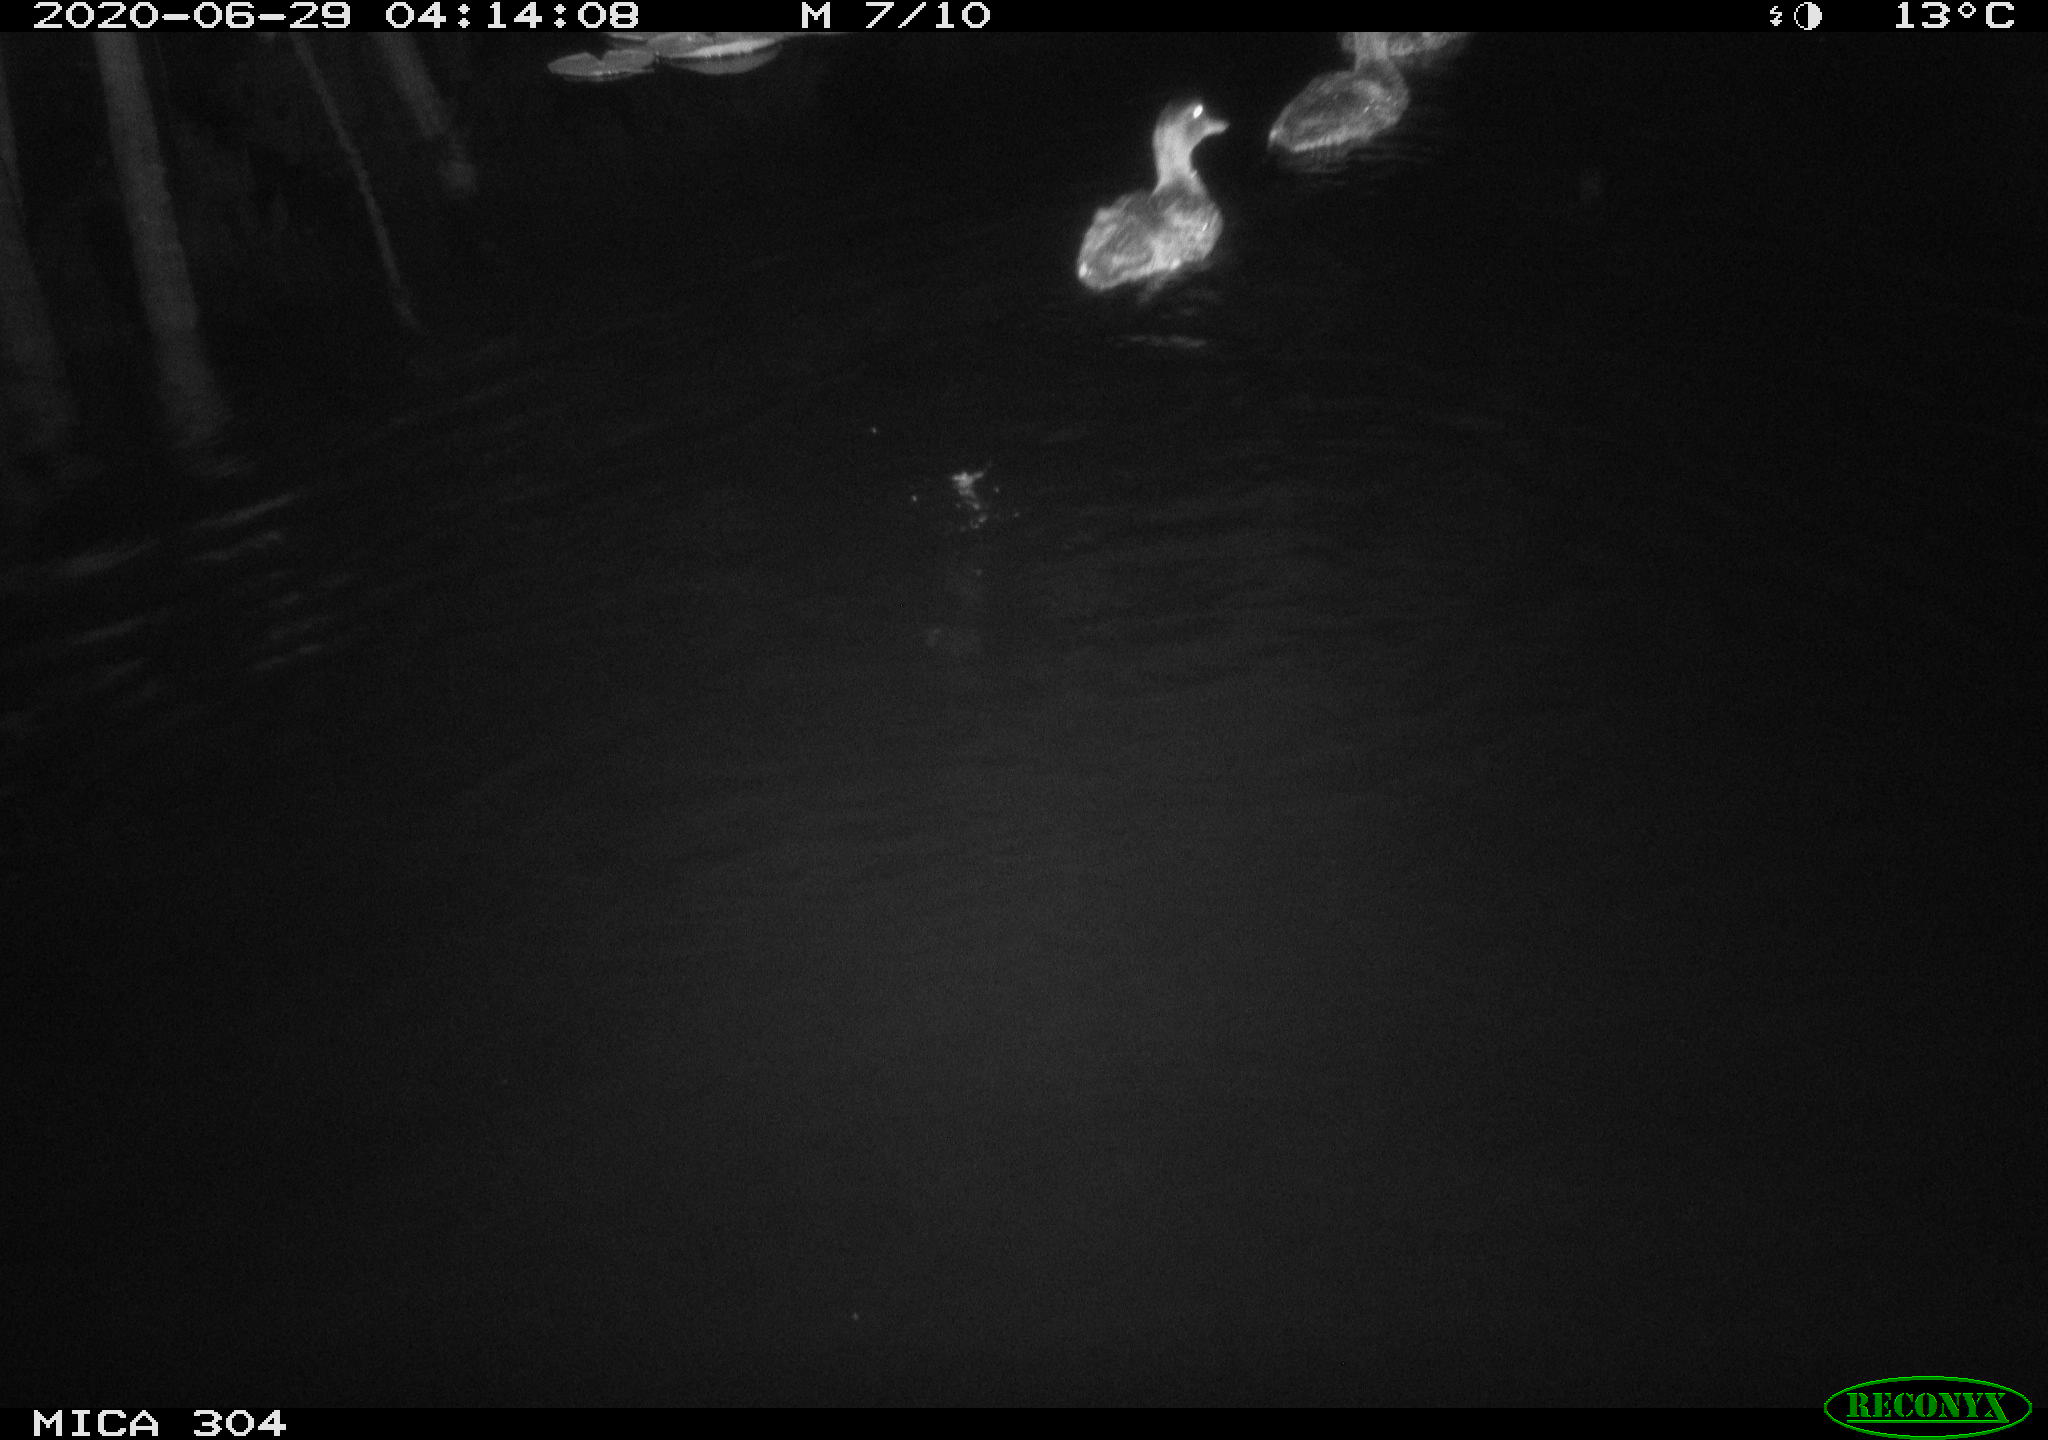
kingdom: Animalia
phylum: Chordata
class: Aves
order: Anseriformes
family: Anatidae
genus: Anas
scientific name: Anas platyrhynchos
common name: Mallard
